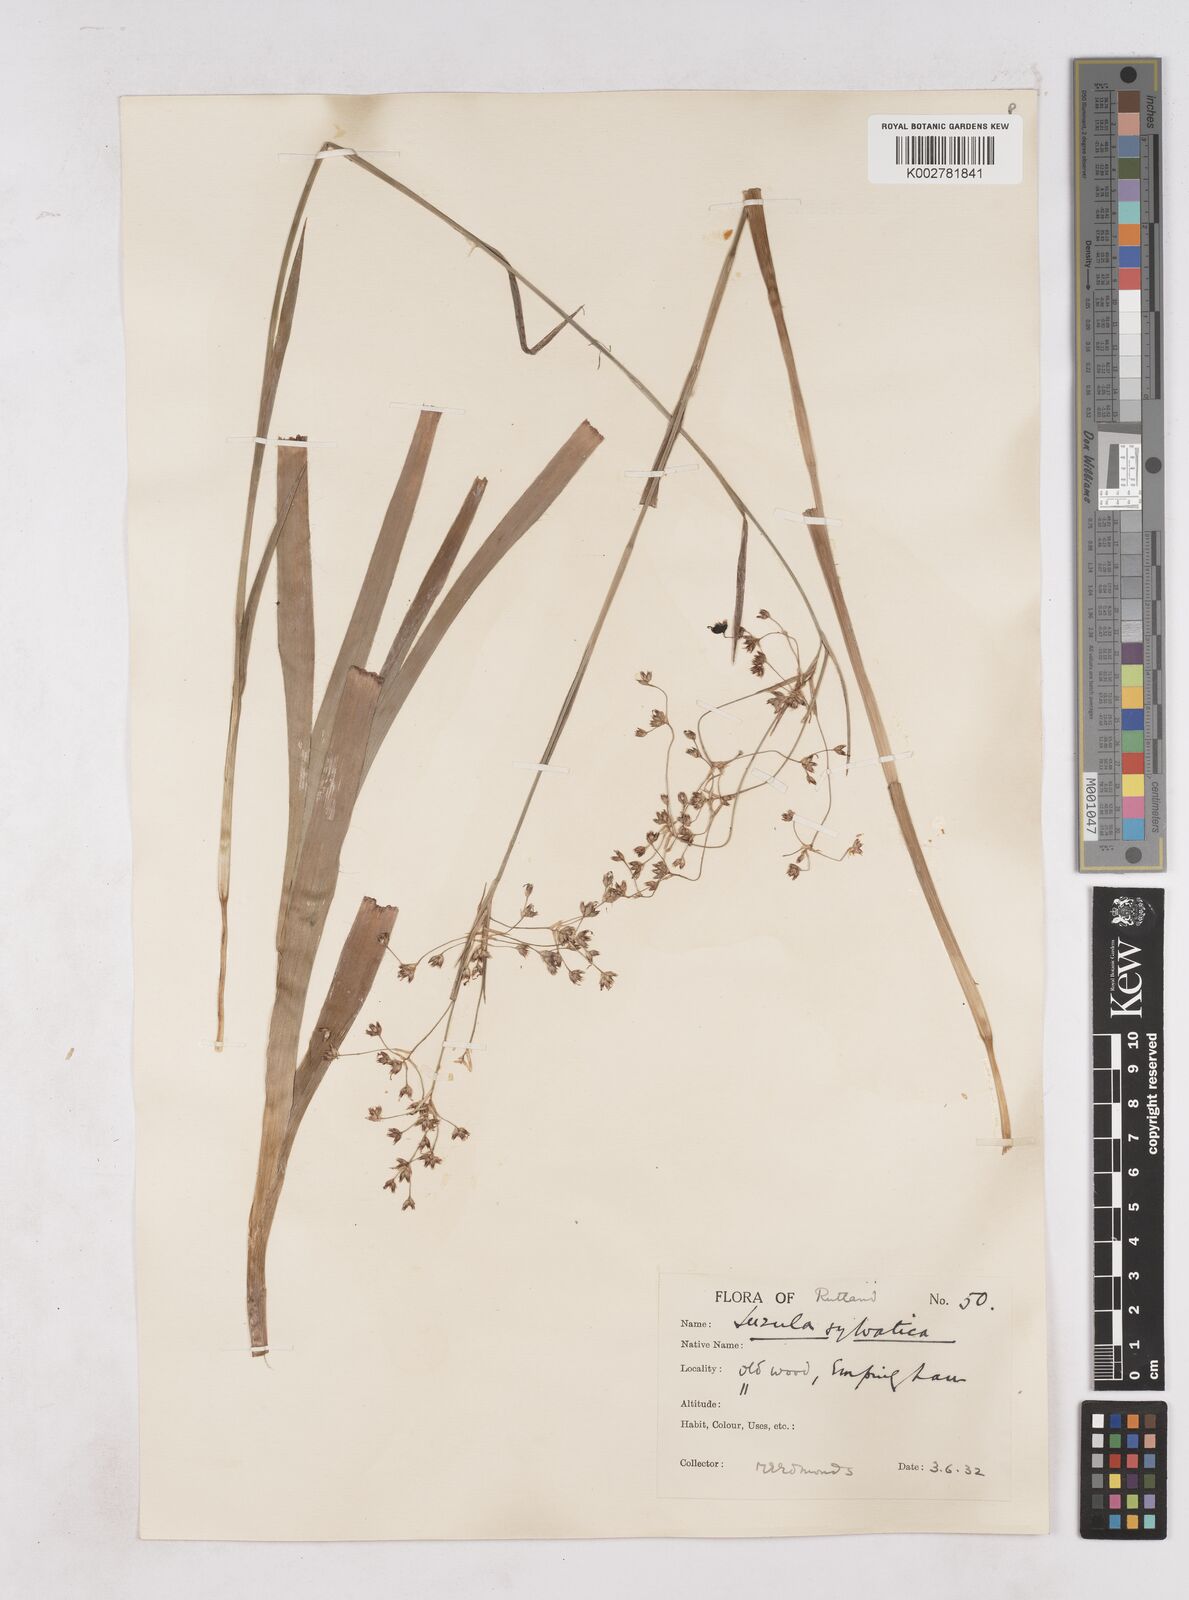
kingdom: Plantae
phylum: Tracheophyta
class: Liliopsida
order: Poales
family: Juncaceae
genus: Luzula
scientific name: Luzula sylvatica
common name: Great wood-rush
